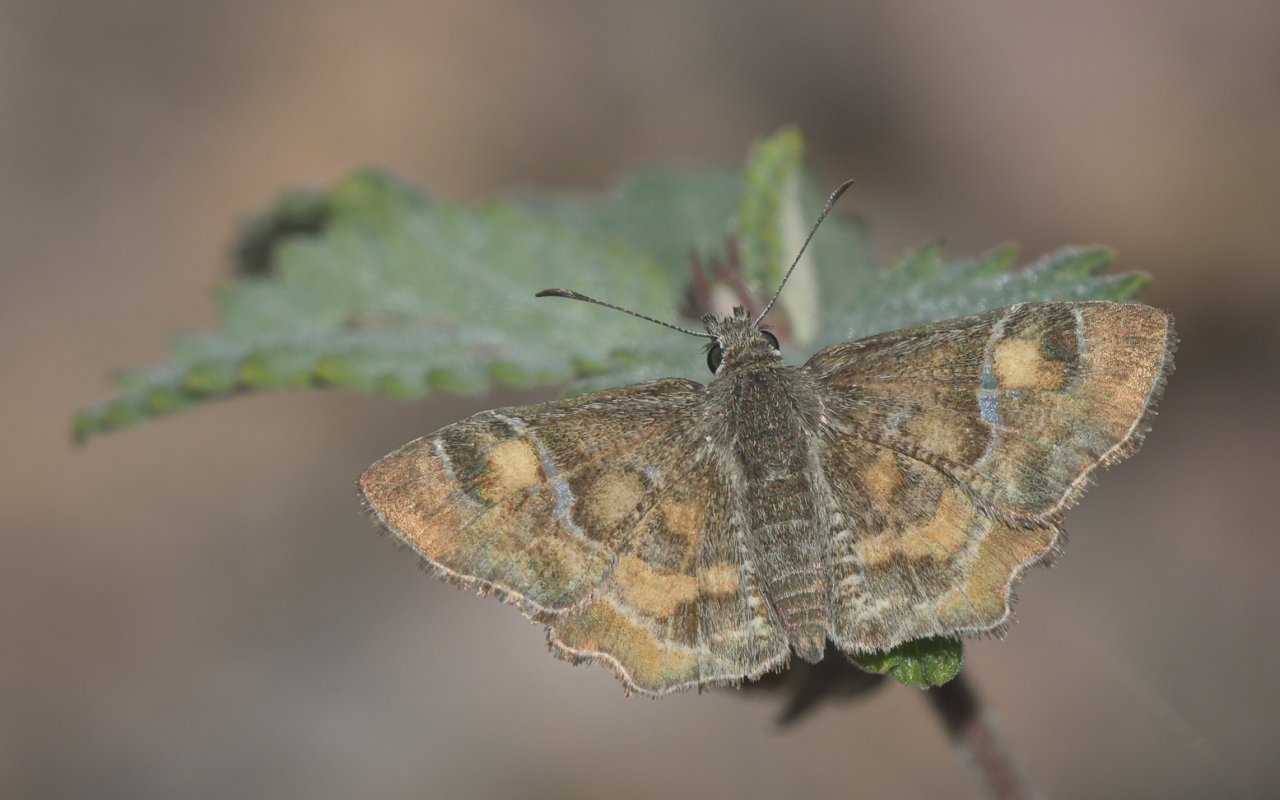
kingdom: Animalia
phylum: Arthropoda
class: Insecta
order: Lepidoptera
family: Hesperiidae
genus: Systasea
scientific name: Systasea zampa
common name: Arizona Powdered-Skipper
